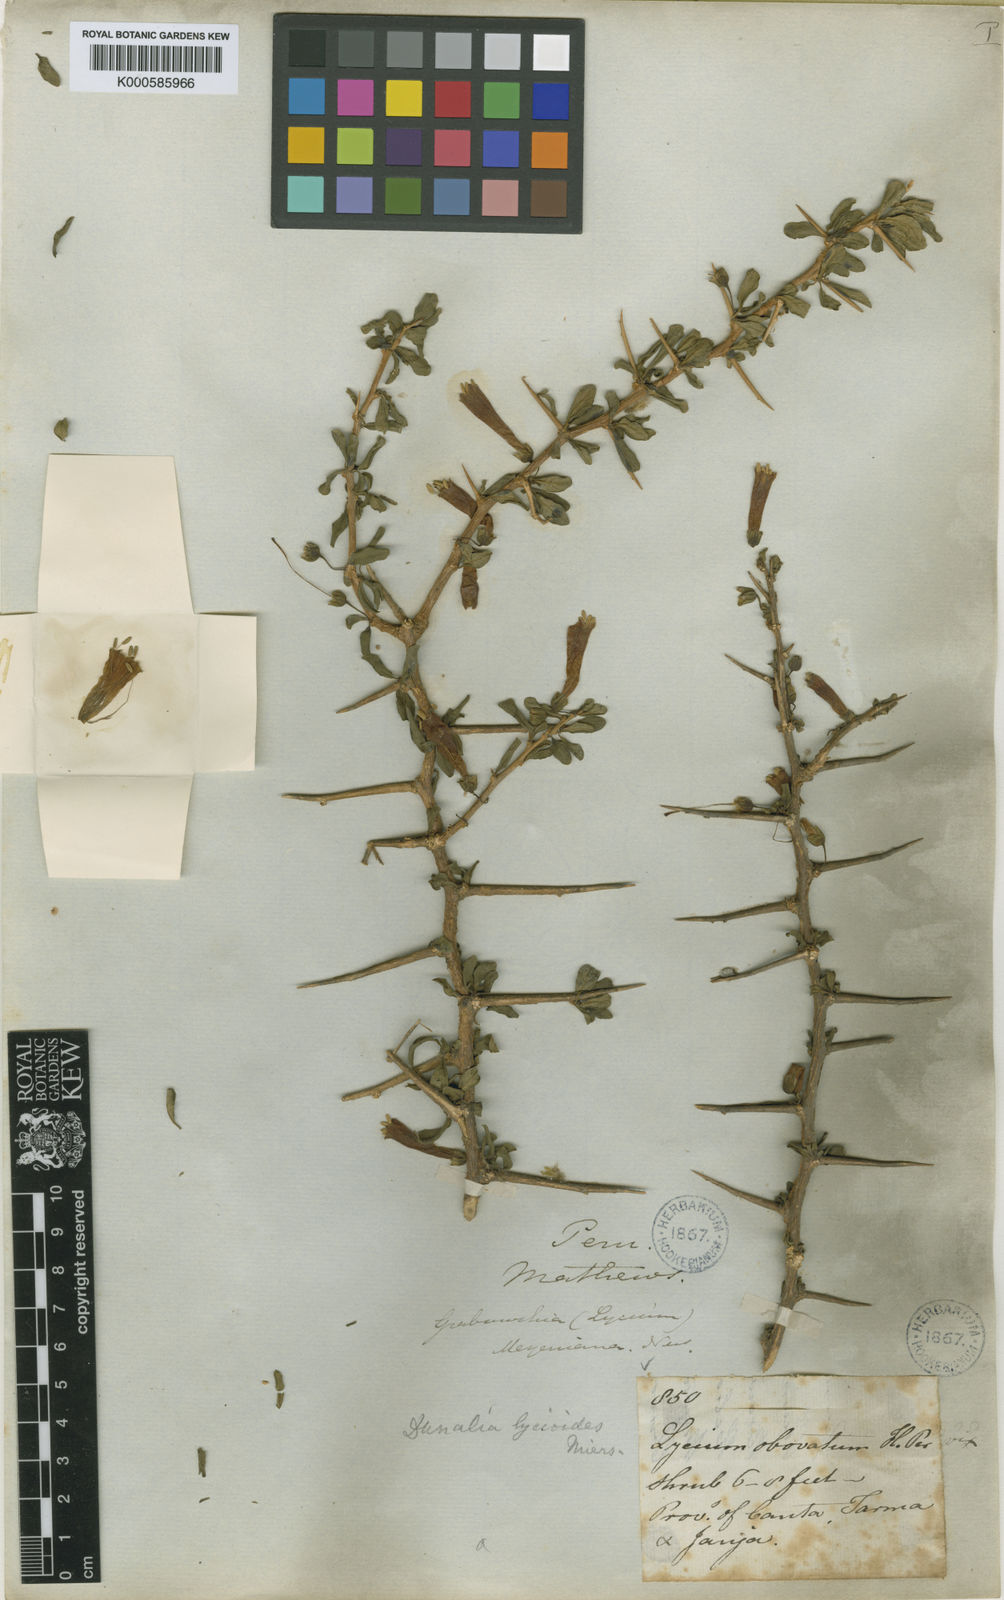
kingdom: Plantae
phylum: Tracheophyta
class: Magnoliopsida
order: Solanales
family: Solanaceae
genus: Dunalia
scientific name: Dunalia spinosa
